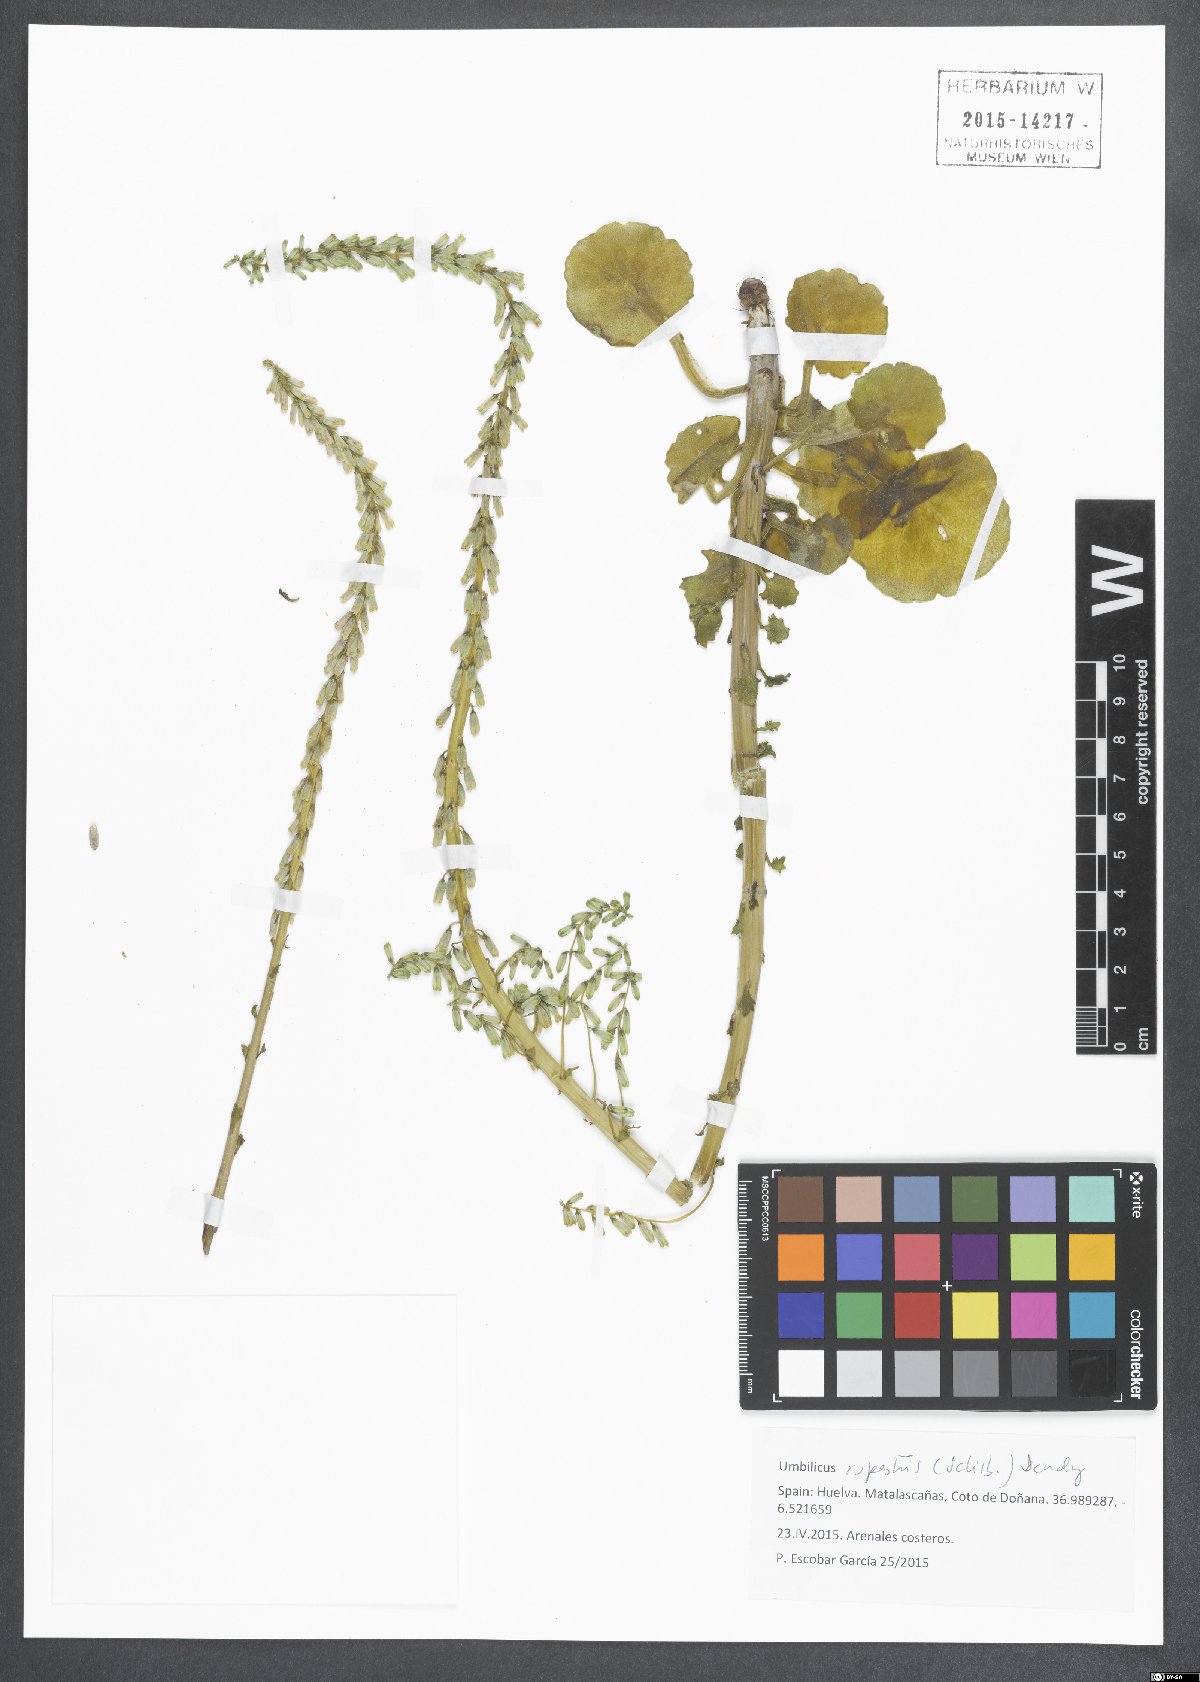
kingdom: Plantae
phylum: Tracheophyta
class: Magnoliopsida
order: Saxifragales
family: Crassulaceae
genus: Umbilicus
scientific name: Umbilicus rupestris
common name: Navelwort
